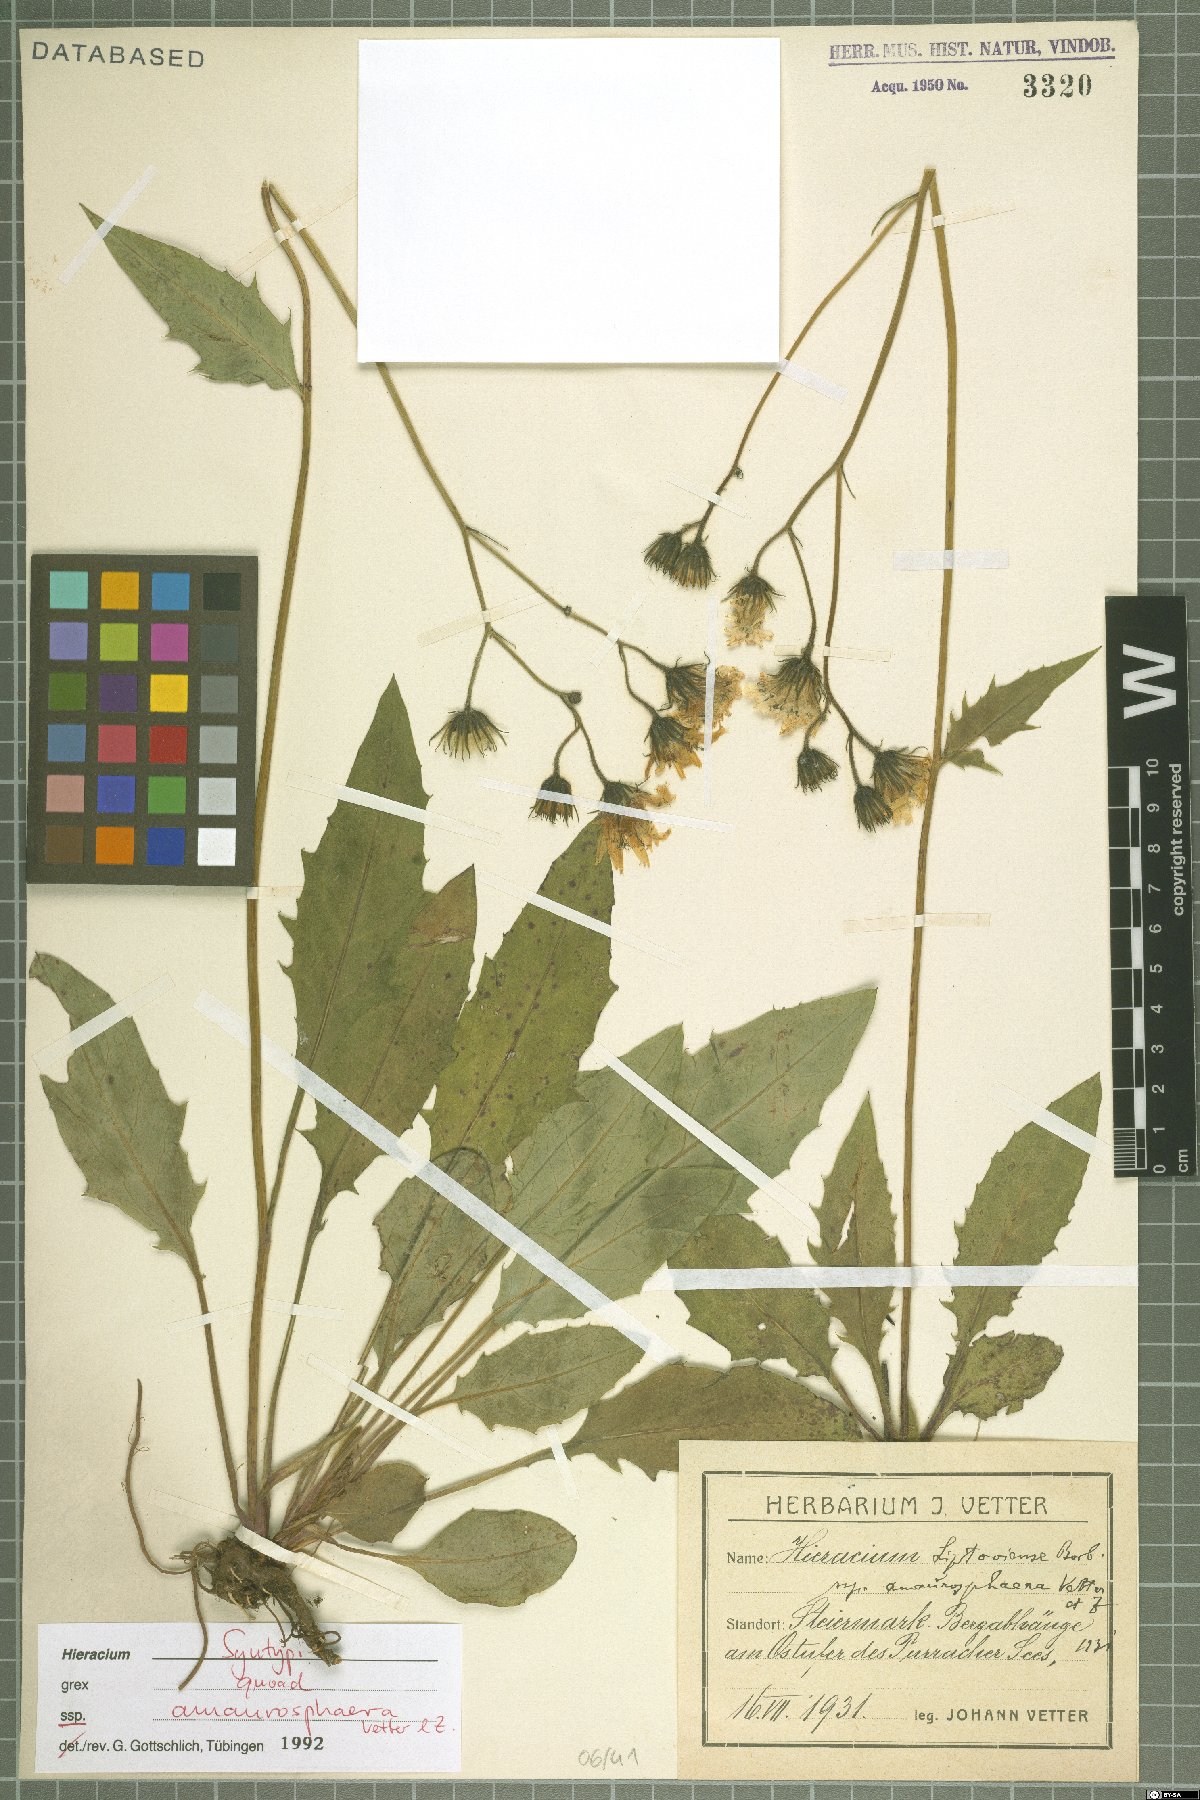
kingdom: Plantae
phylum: Tracheophyta
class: Magnoliopsida
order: Asterales
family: Asteraceae
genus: Hieracium
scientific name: Hieracium liptoviense
